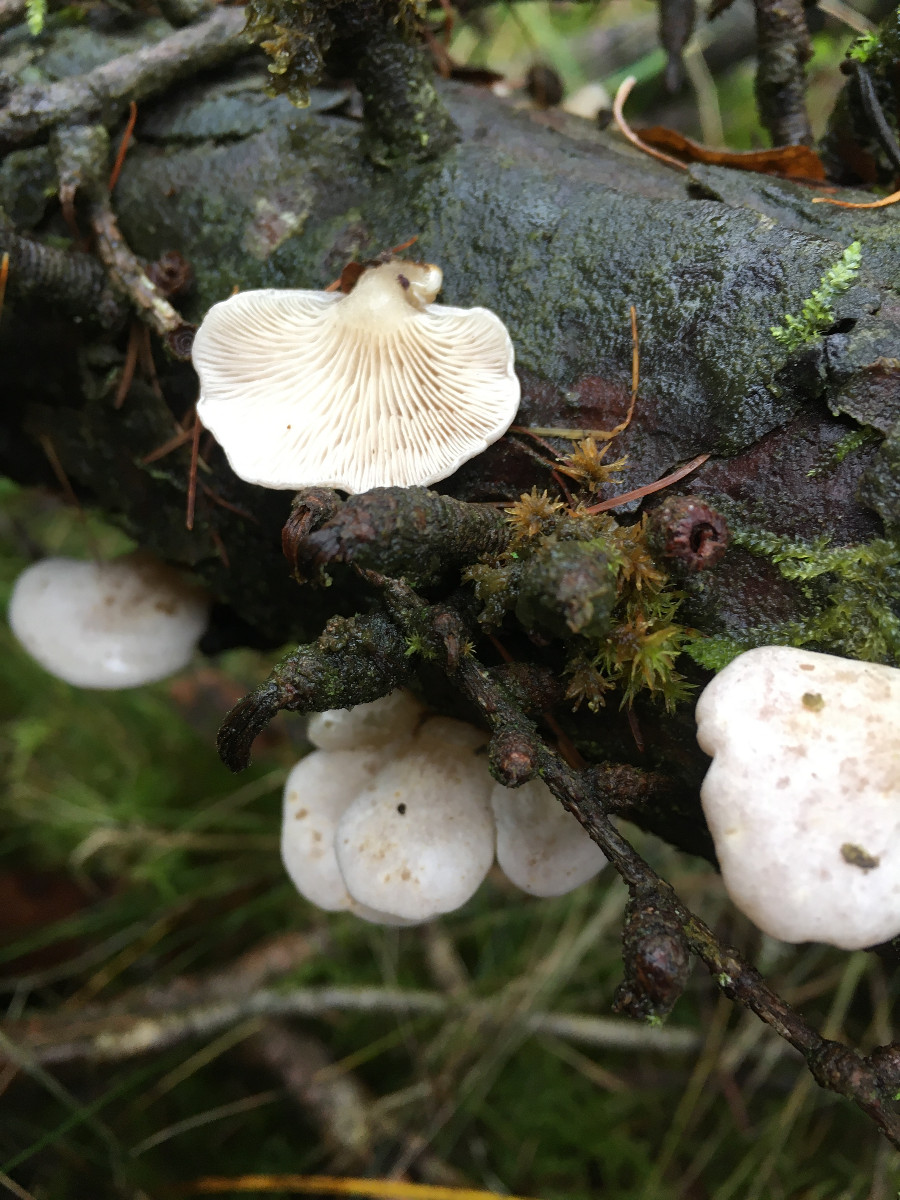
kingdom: Fungi
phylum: Basidiomycota
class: Agaricomycetes
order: Agaricales
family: Mycenaceae
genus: Panellus
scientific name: Panellus mitis
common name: mild epaulethat
